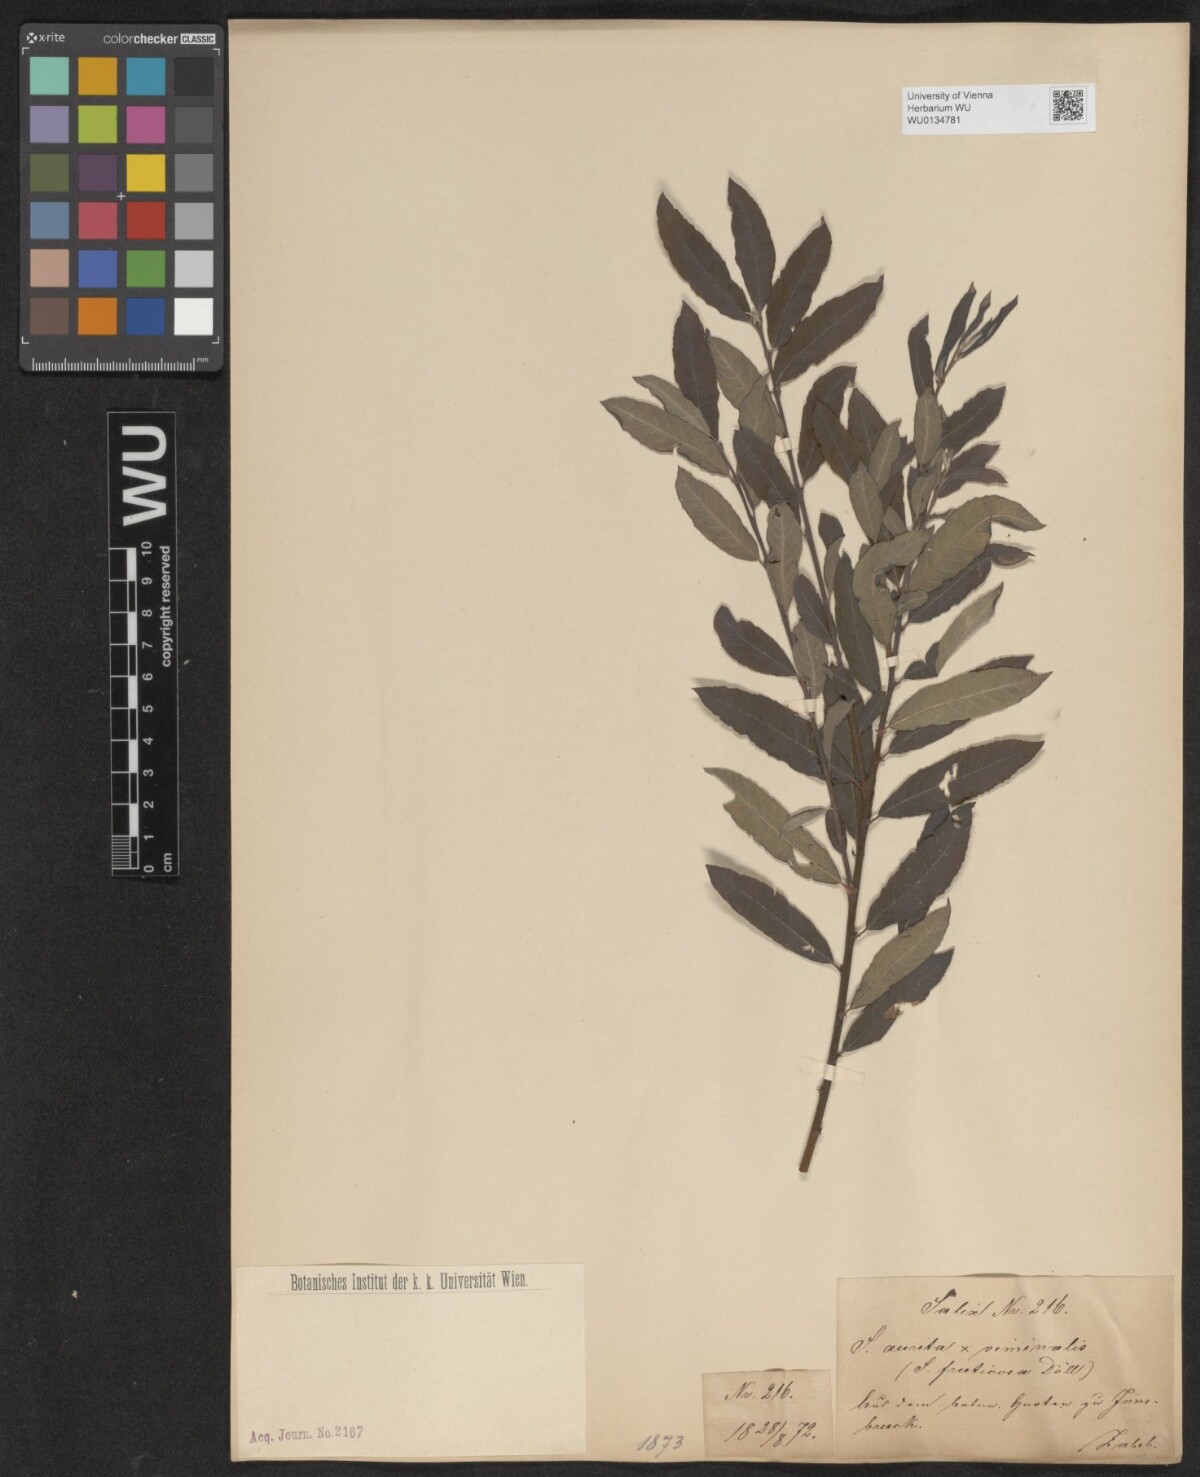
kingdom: Plantae
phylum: Tracheophyta
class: Magnoliopsida
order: Malpighiales
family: Salicaceae
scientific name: Salicaceae
